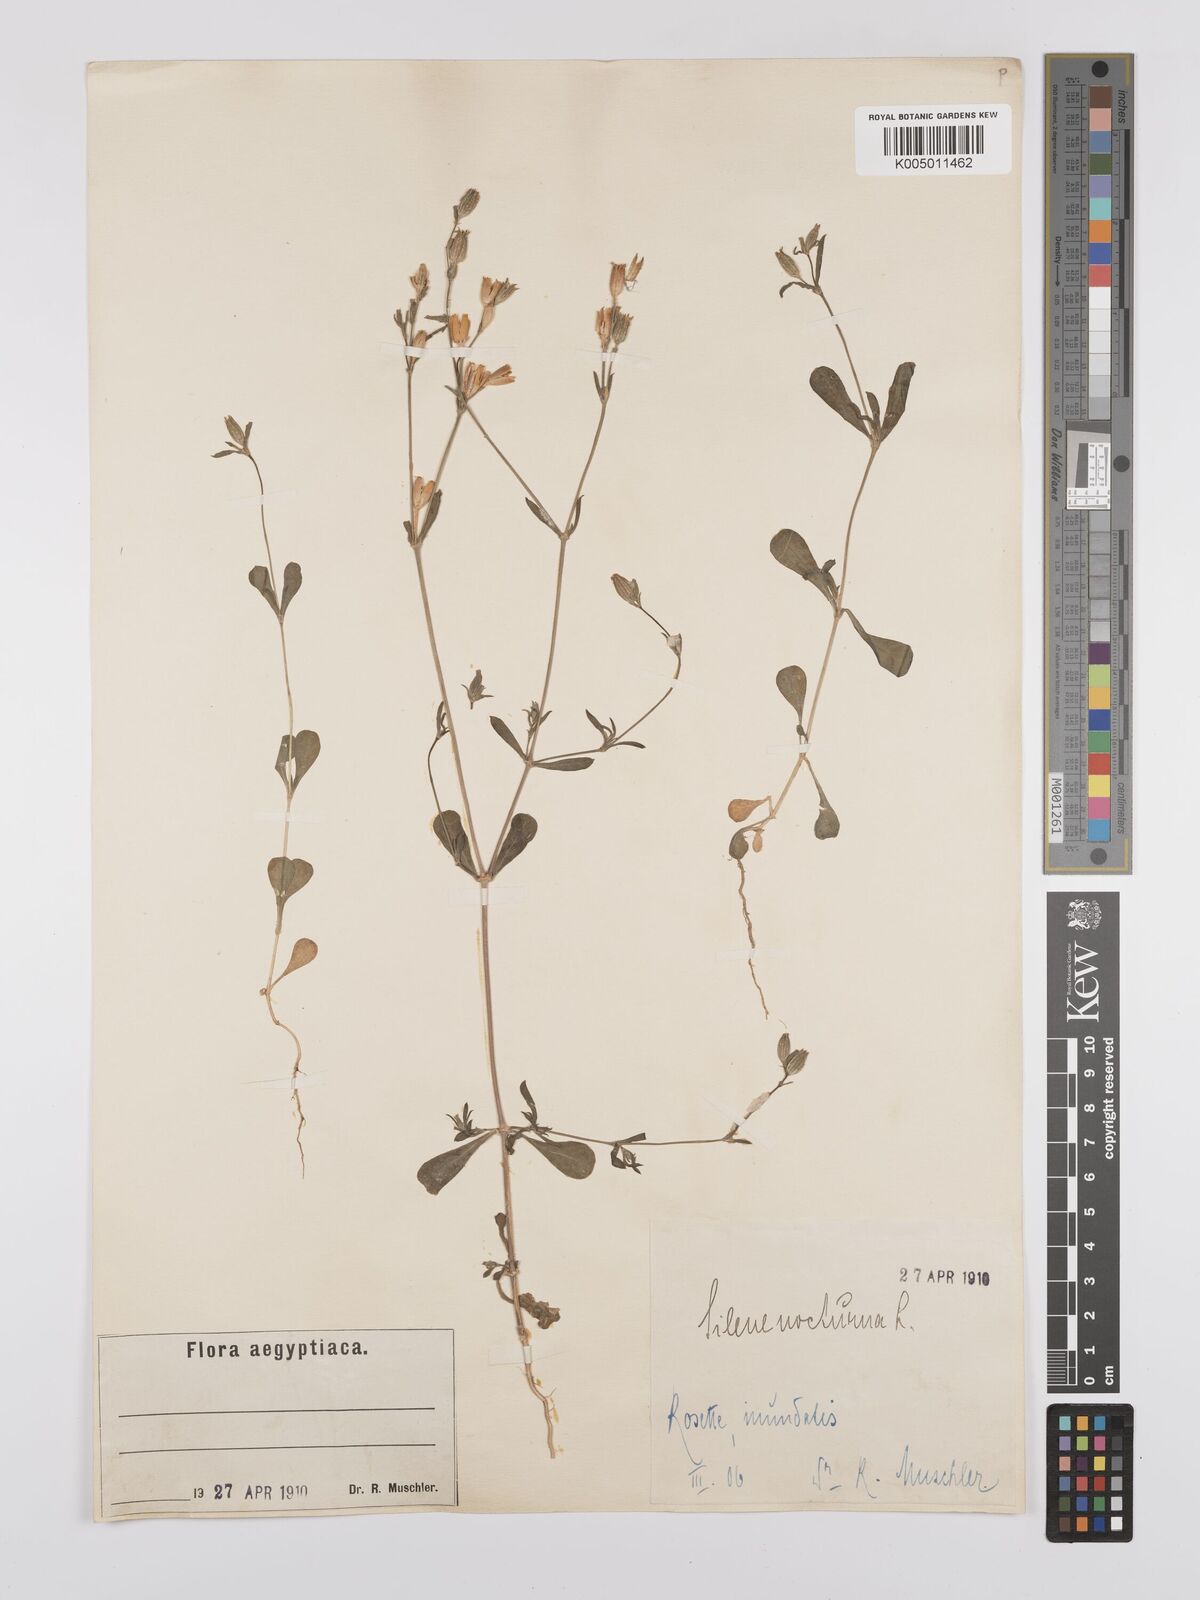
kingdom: Plantae
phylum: Tracheophyta
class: Magnoliopsida
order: Caryophyllales
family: Caryophyllaceae
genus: Silene
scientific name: Silene nocturna
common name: Mediterranean catchfly
